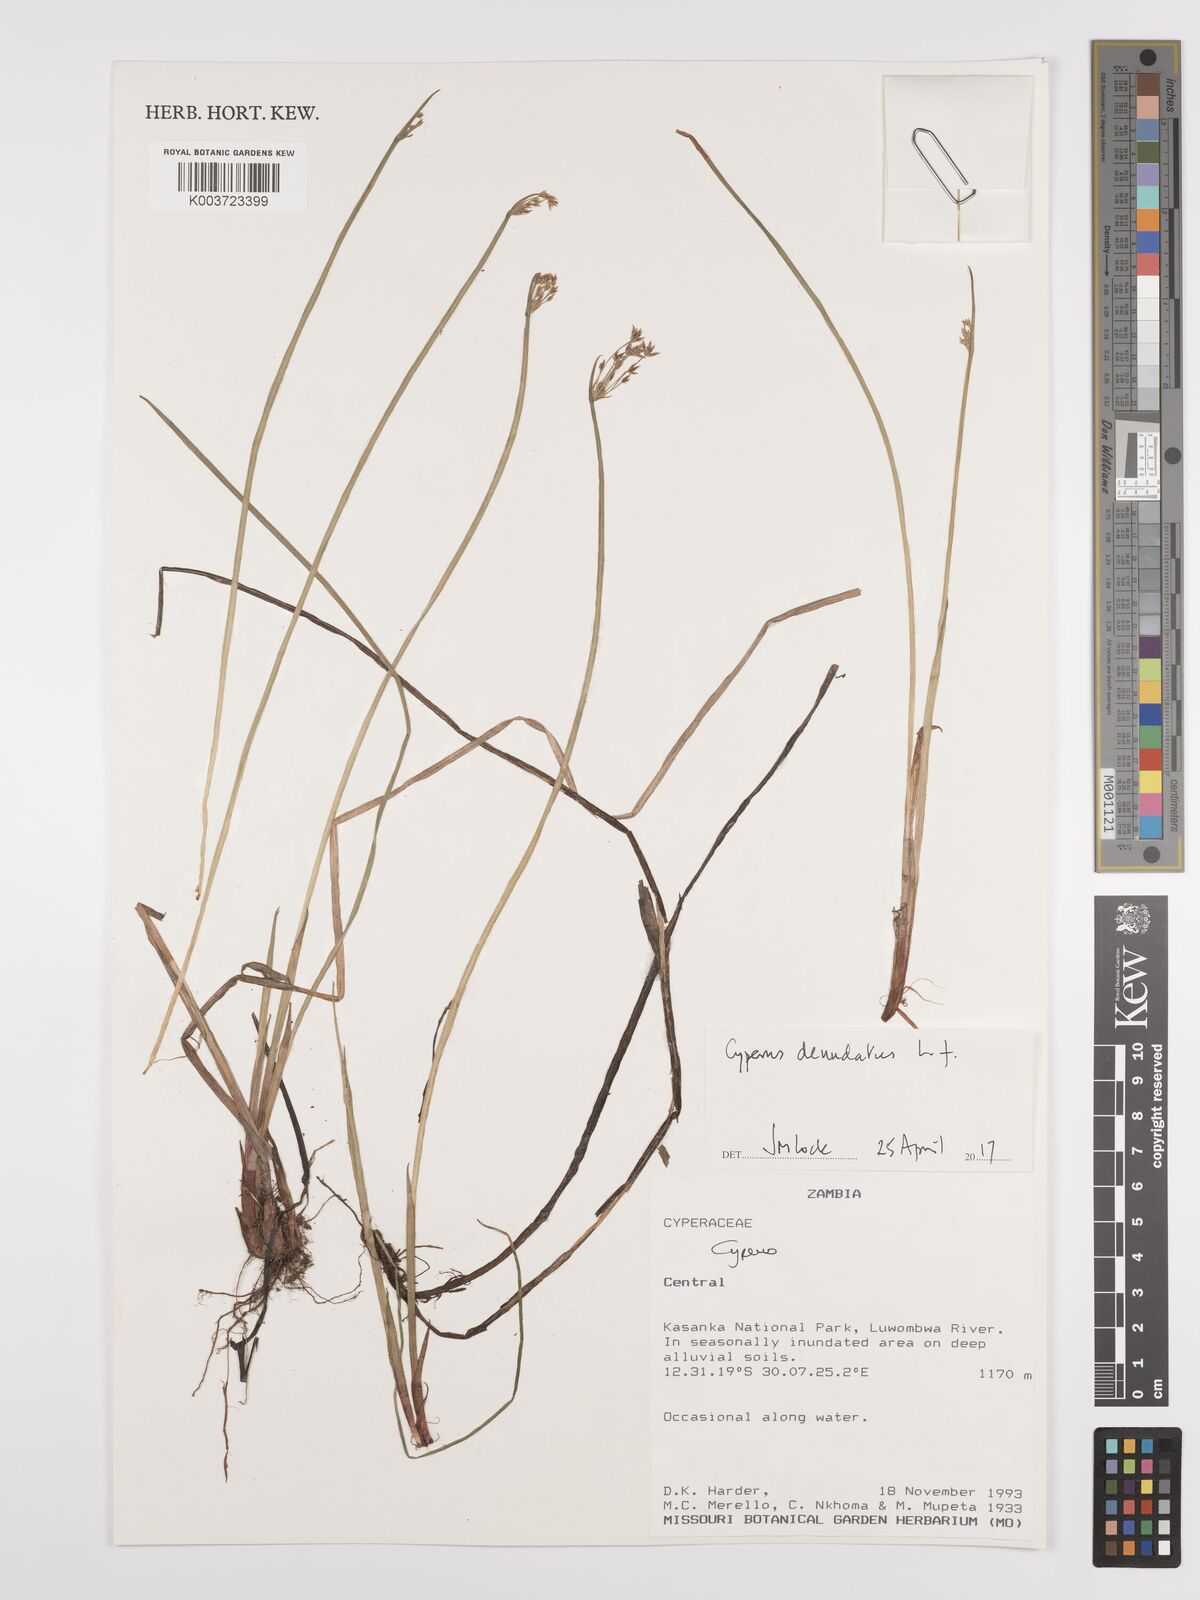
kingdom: Plantae
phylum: Tracheophyta
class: Liliopsida
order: Poales
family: Cyperaceae
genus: Cyperus
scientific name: Cyperus denudatus
